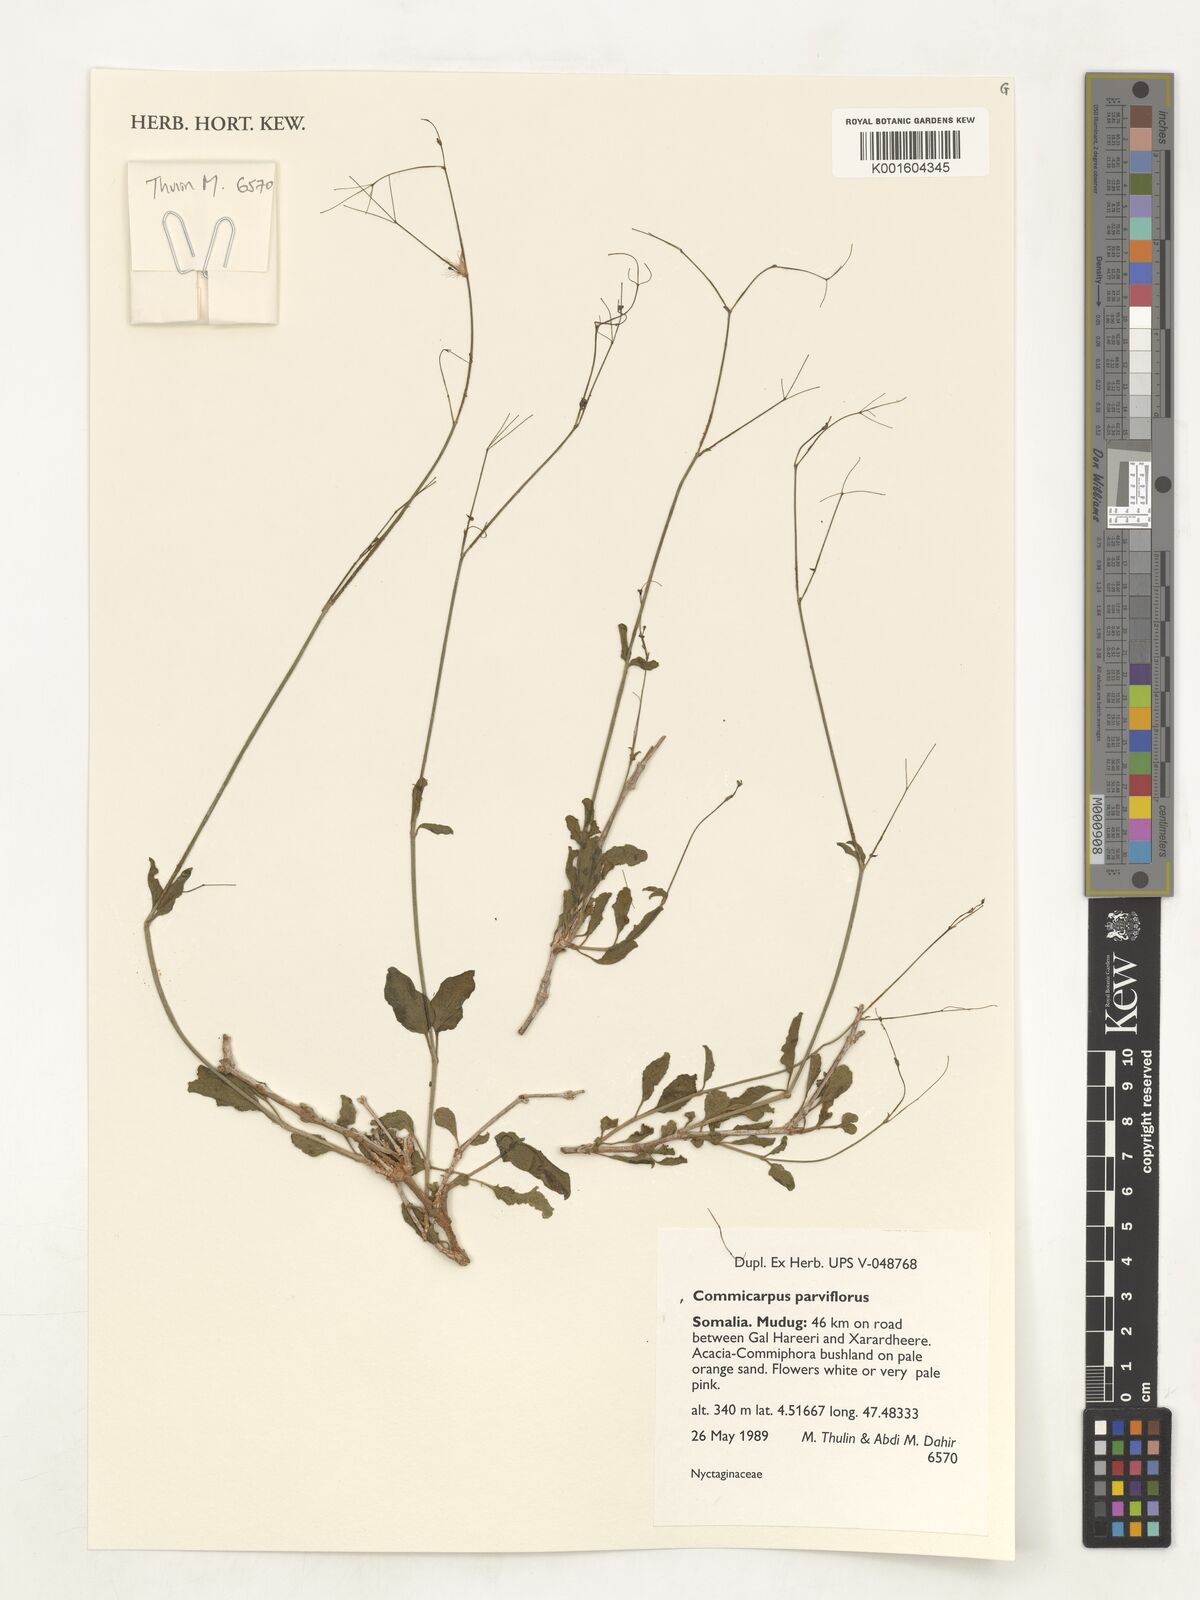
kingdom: Plantae
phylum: Tracheophyta
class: Magnoliopsida
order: Caryophyllales
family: Nyctaginaceae
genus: Commicarpus
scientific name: Commicarpus parviflorus
